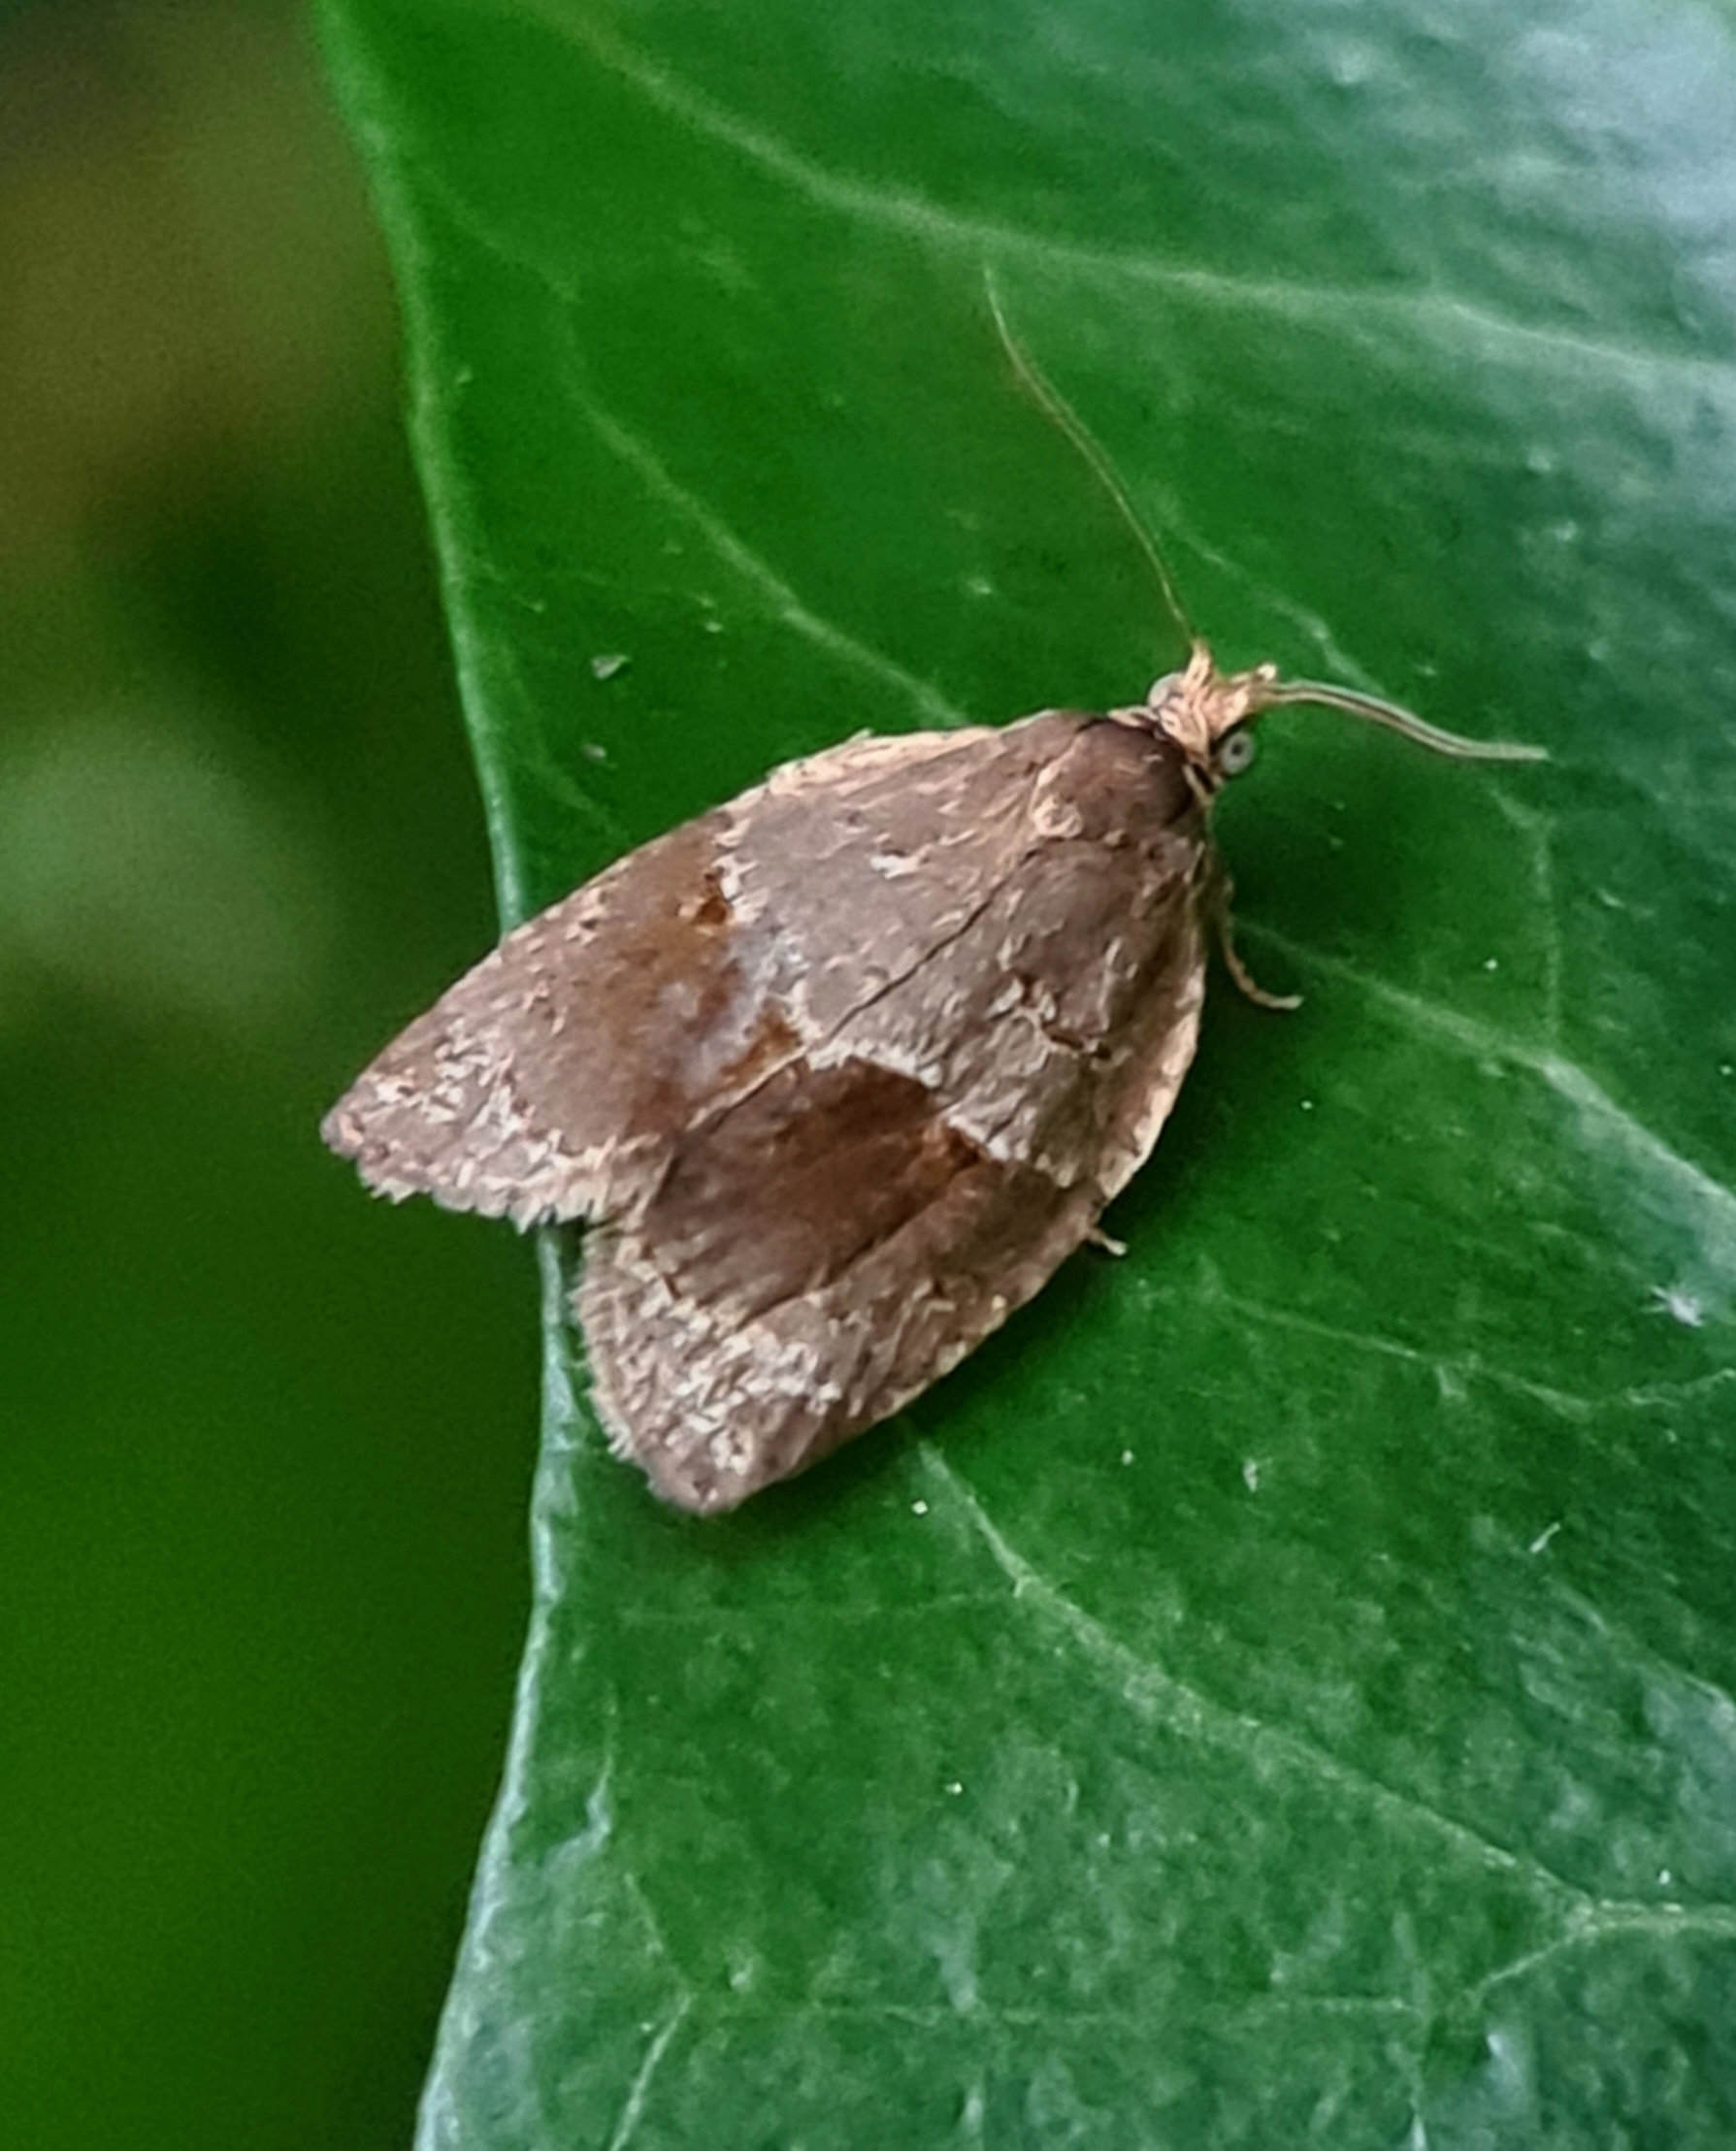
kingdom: Animalia
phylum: Arthropoda
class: Insecta
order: Lepidoptera
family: Tortricidae
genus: Clepsis
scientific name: Clepsis dumicolana
